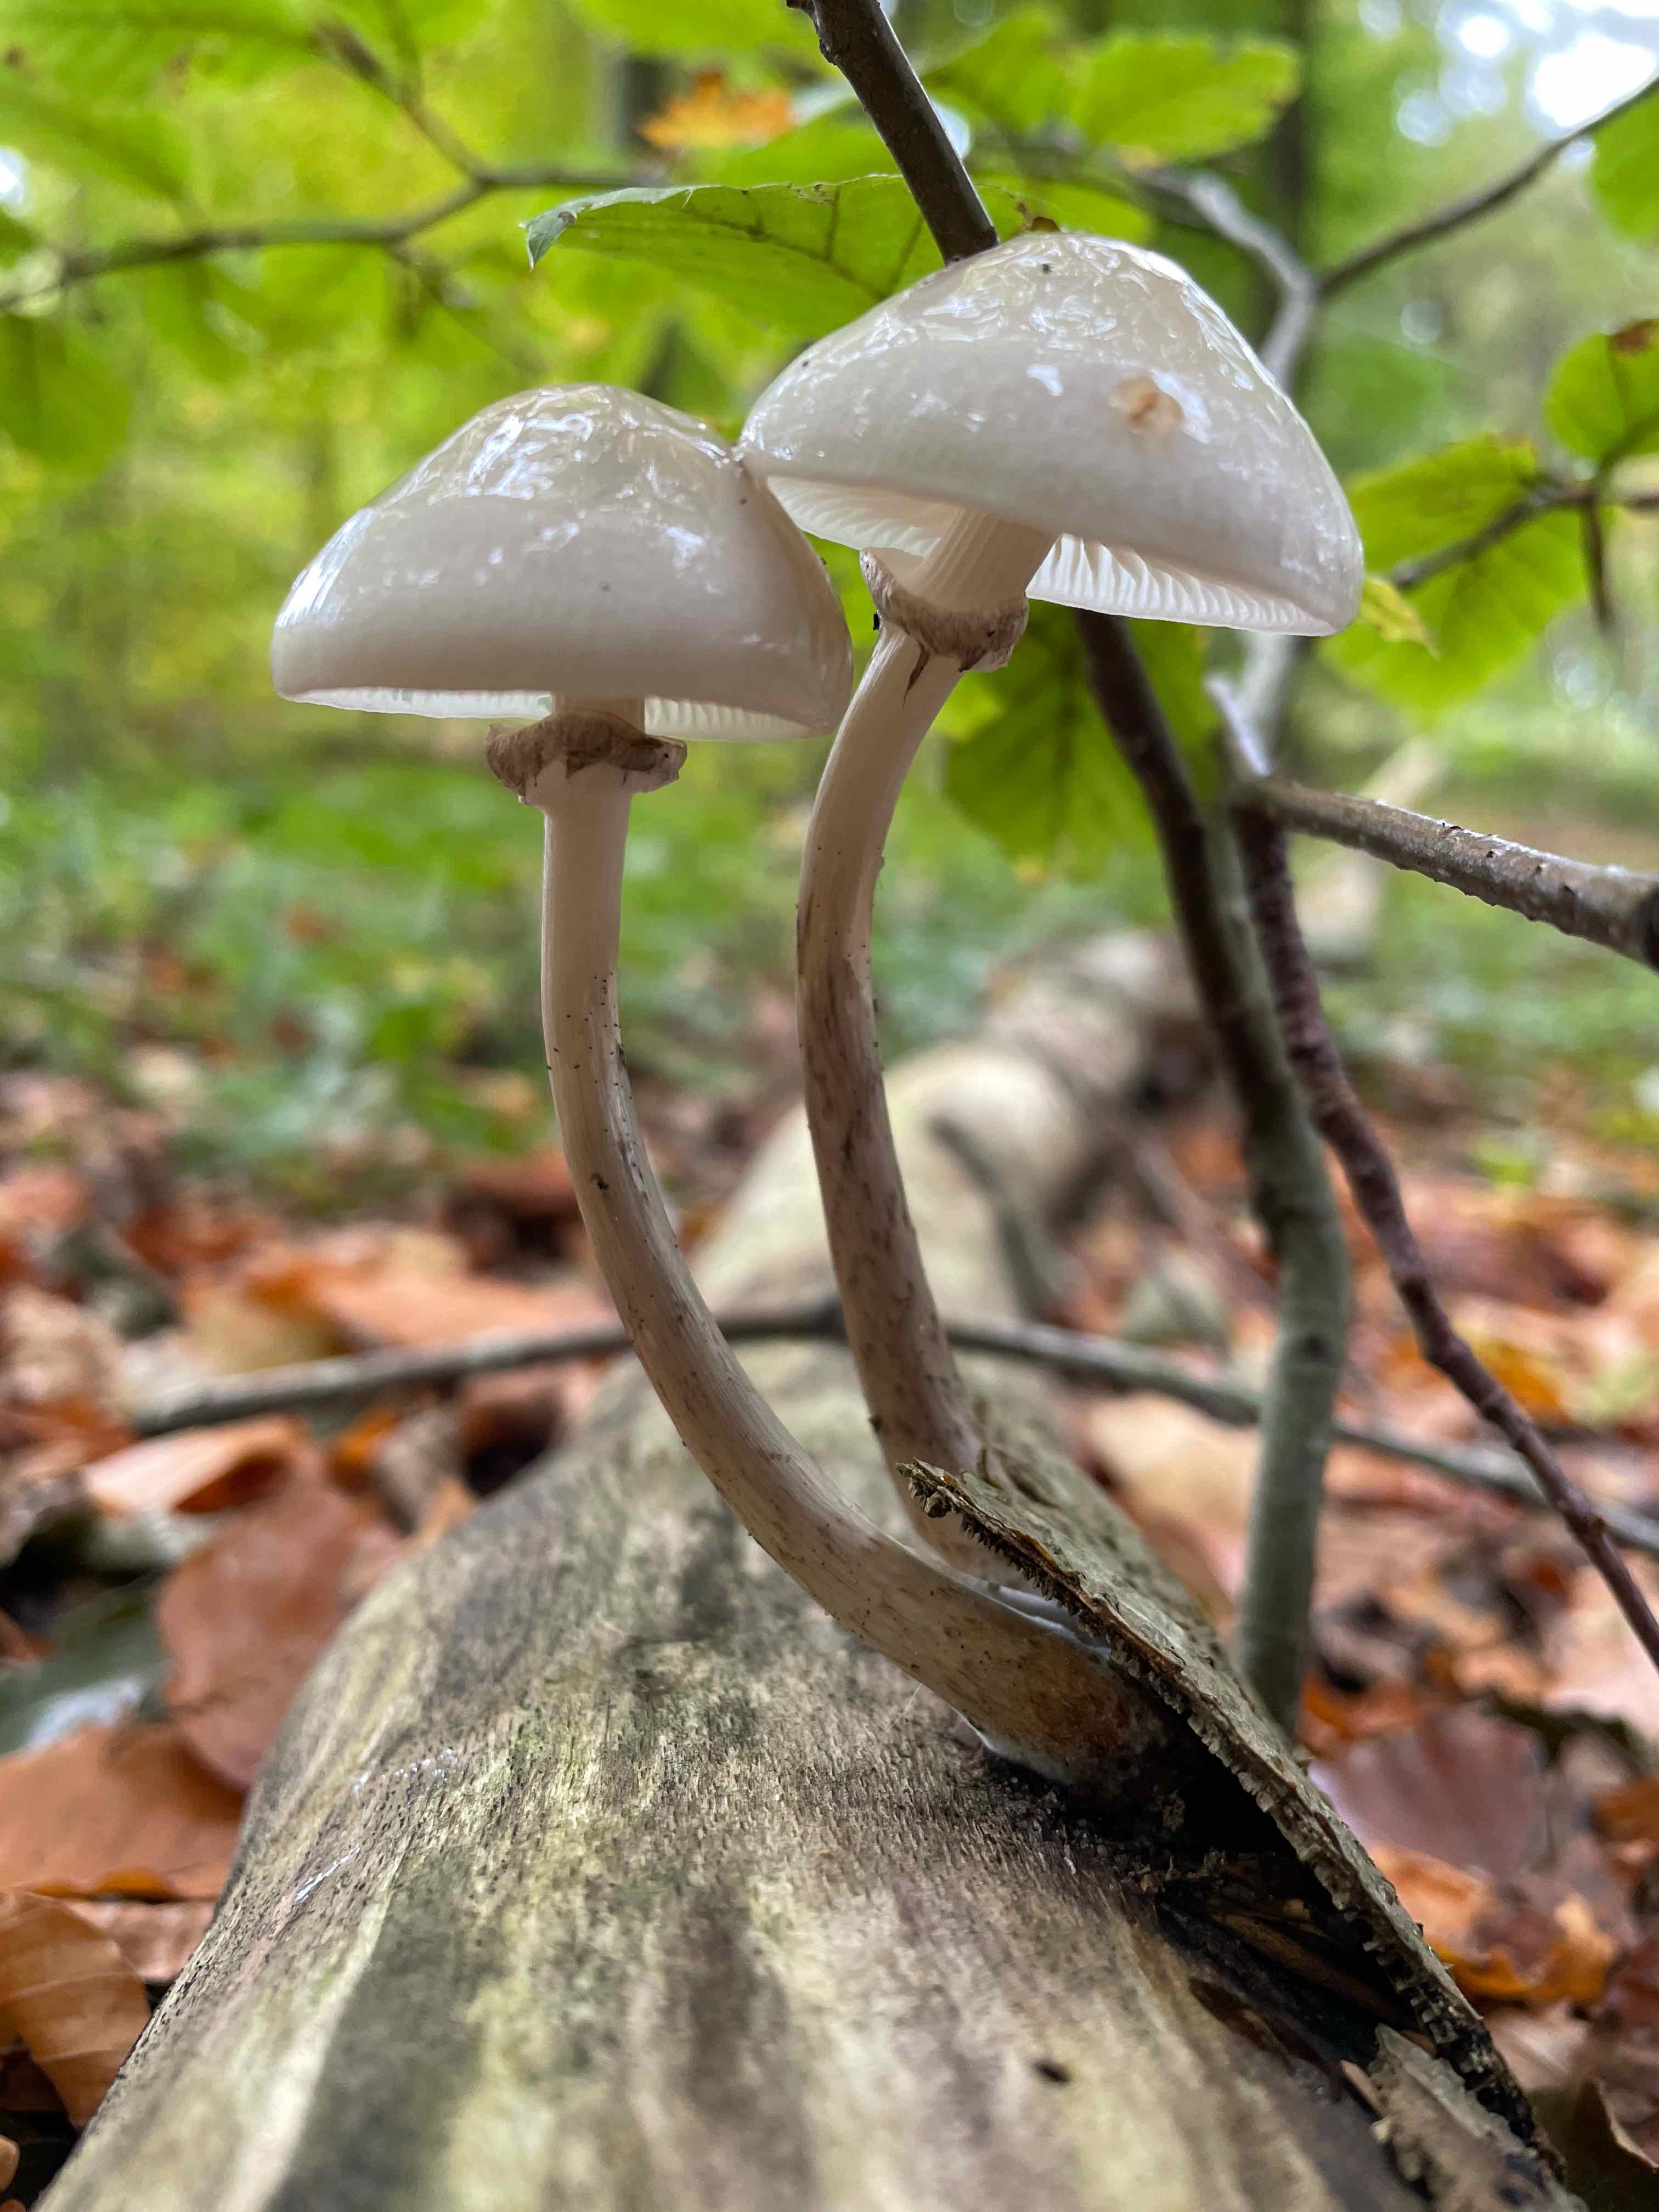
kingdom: Fungi
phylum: Basidiomycota
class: Agaricomycetes
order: Agaricales
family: Physalacriaceae
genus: Mucidula
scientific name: Mucidula mucida
